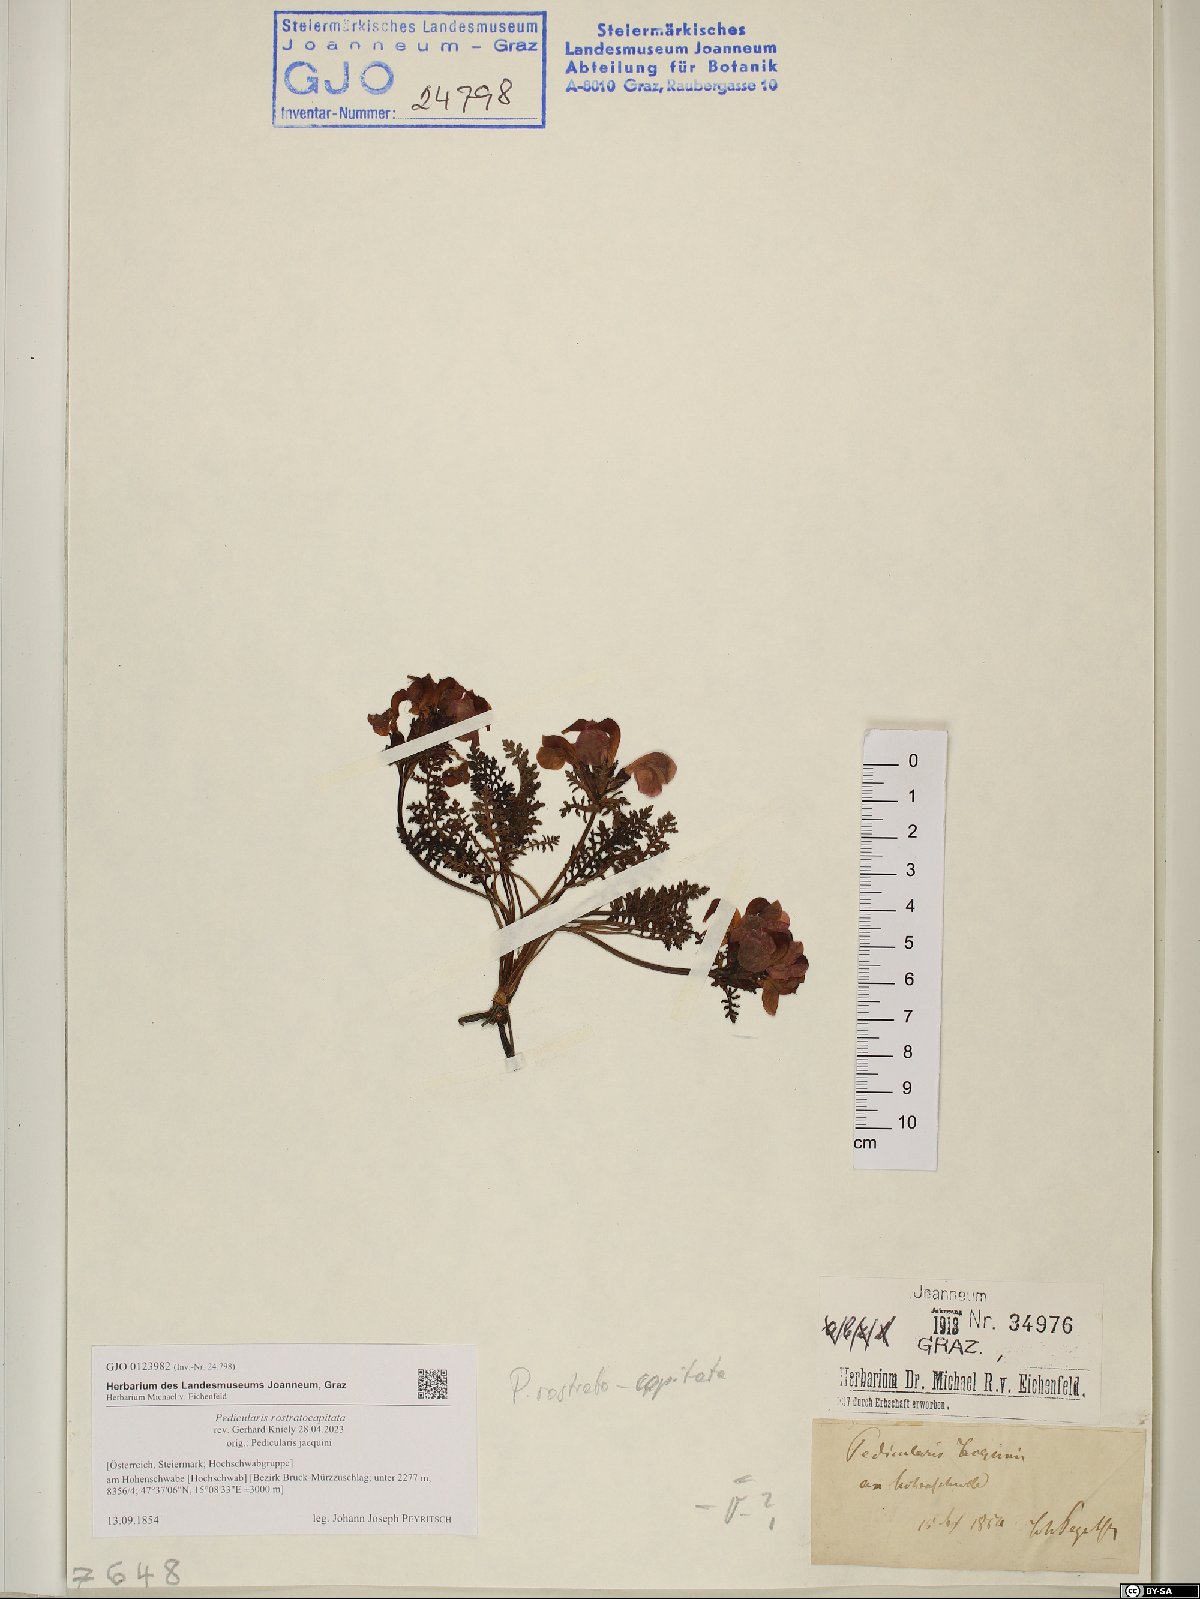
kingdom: Plantae
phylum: Tracheophyta
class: Magnoliopsida
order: Lamiales
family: Orobanchaceae
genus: Pedicularis
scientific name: Pedicularis rostratocapitata
